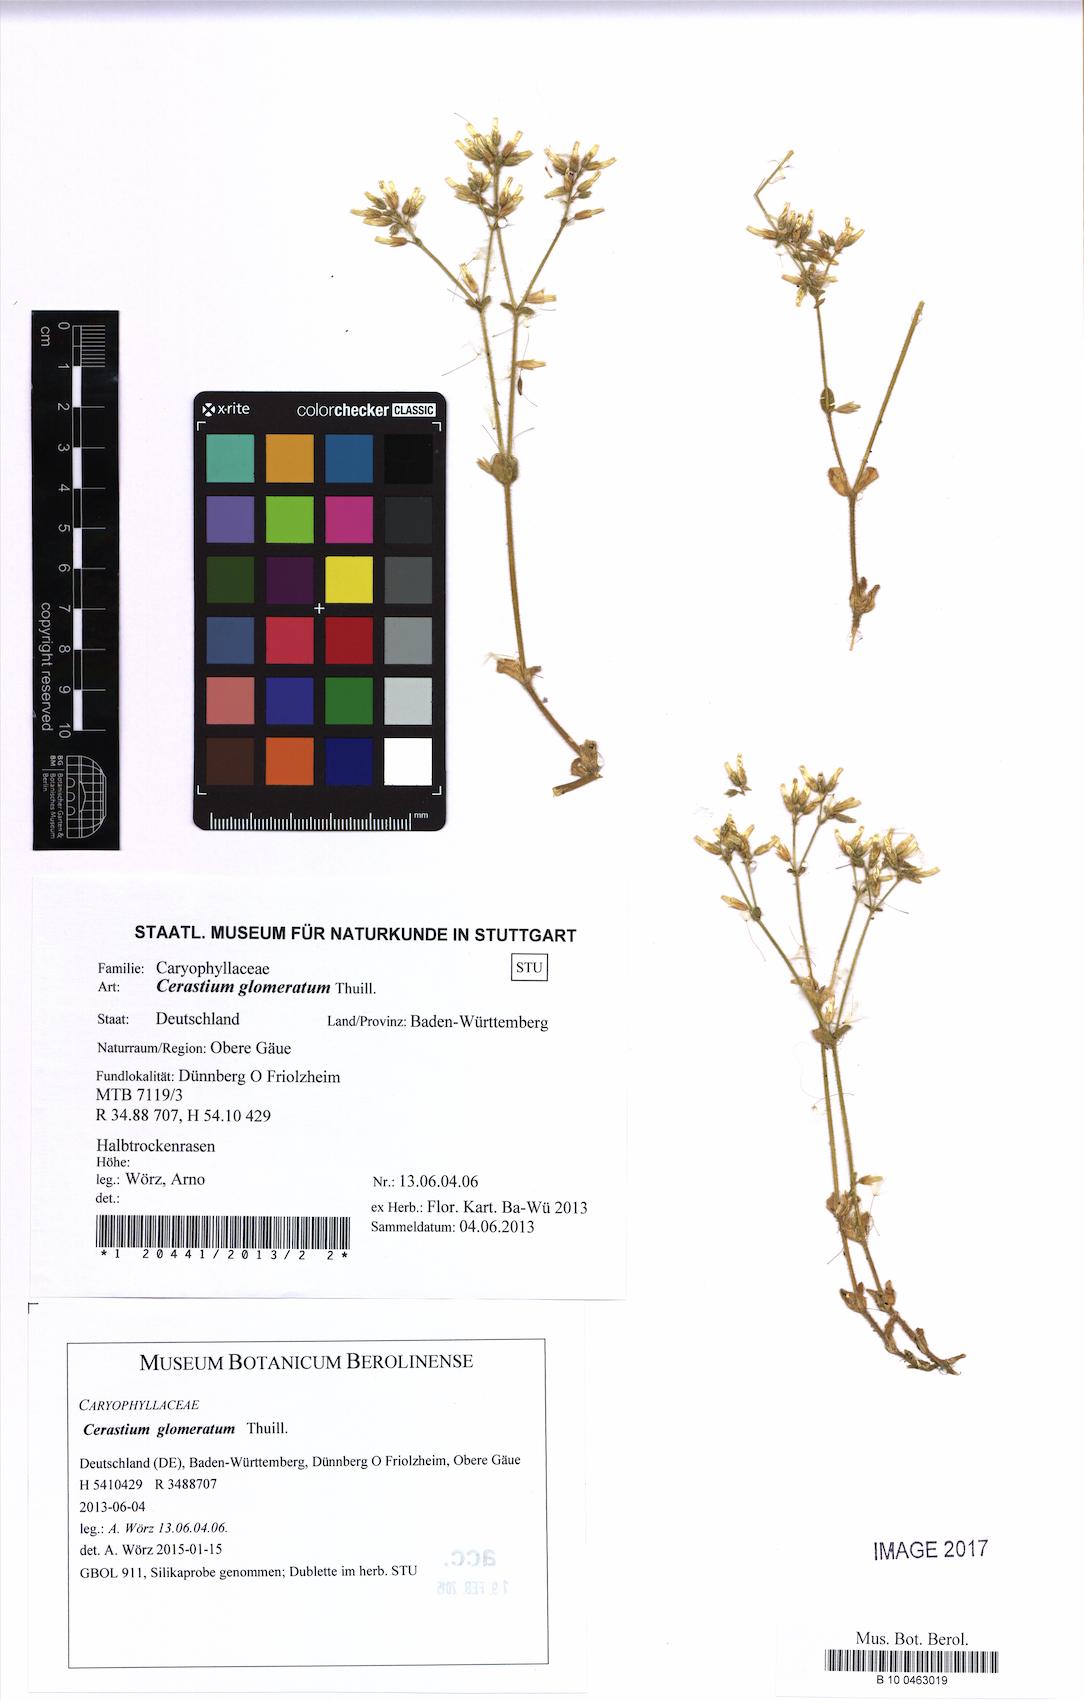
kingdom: Plantae
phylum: Tracheophyta
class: Magnoliopsida
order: Caryophyllales
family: Caryophyllaceae
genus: Cerastium
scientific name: Cerastium glomeratum
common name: Sticky chickweed
